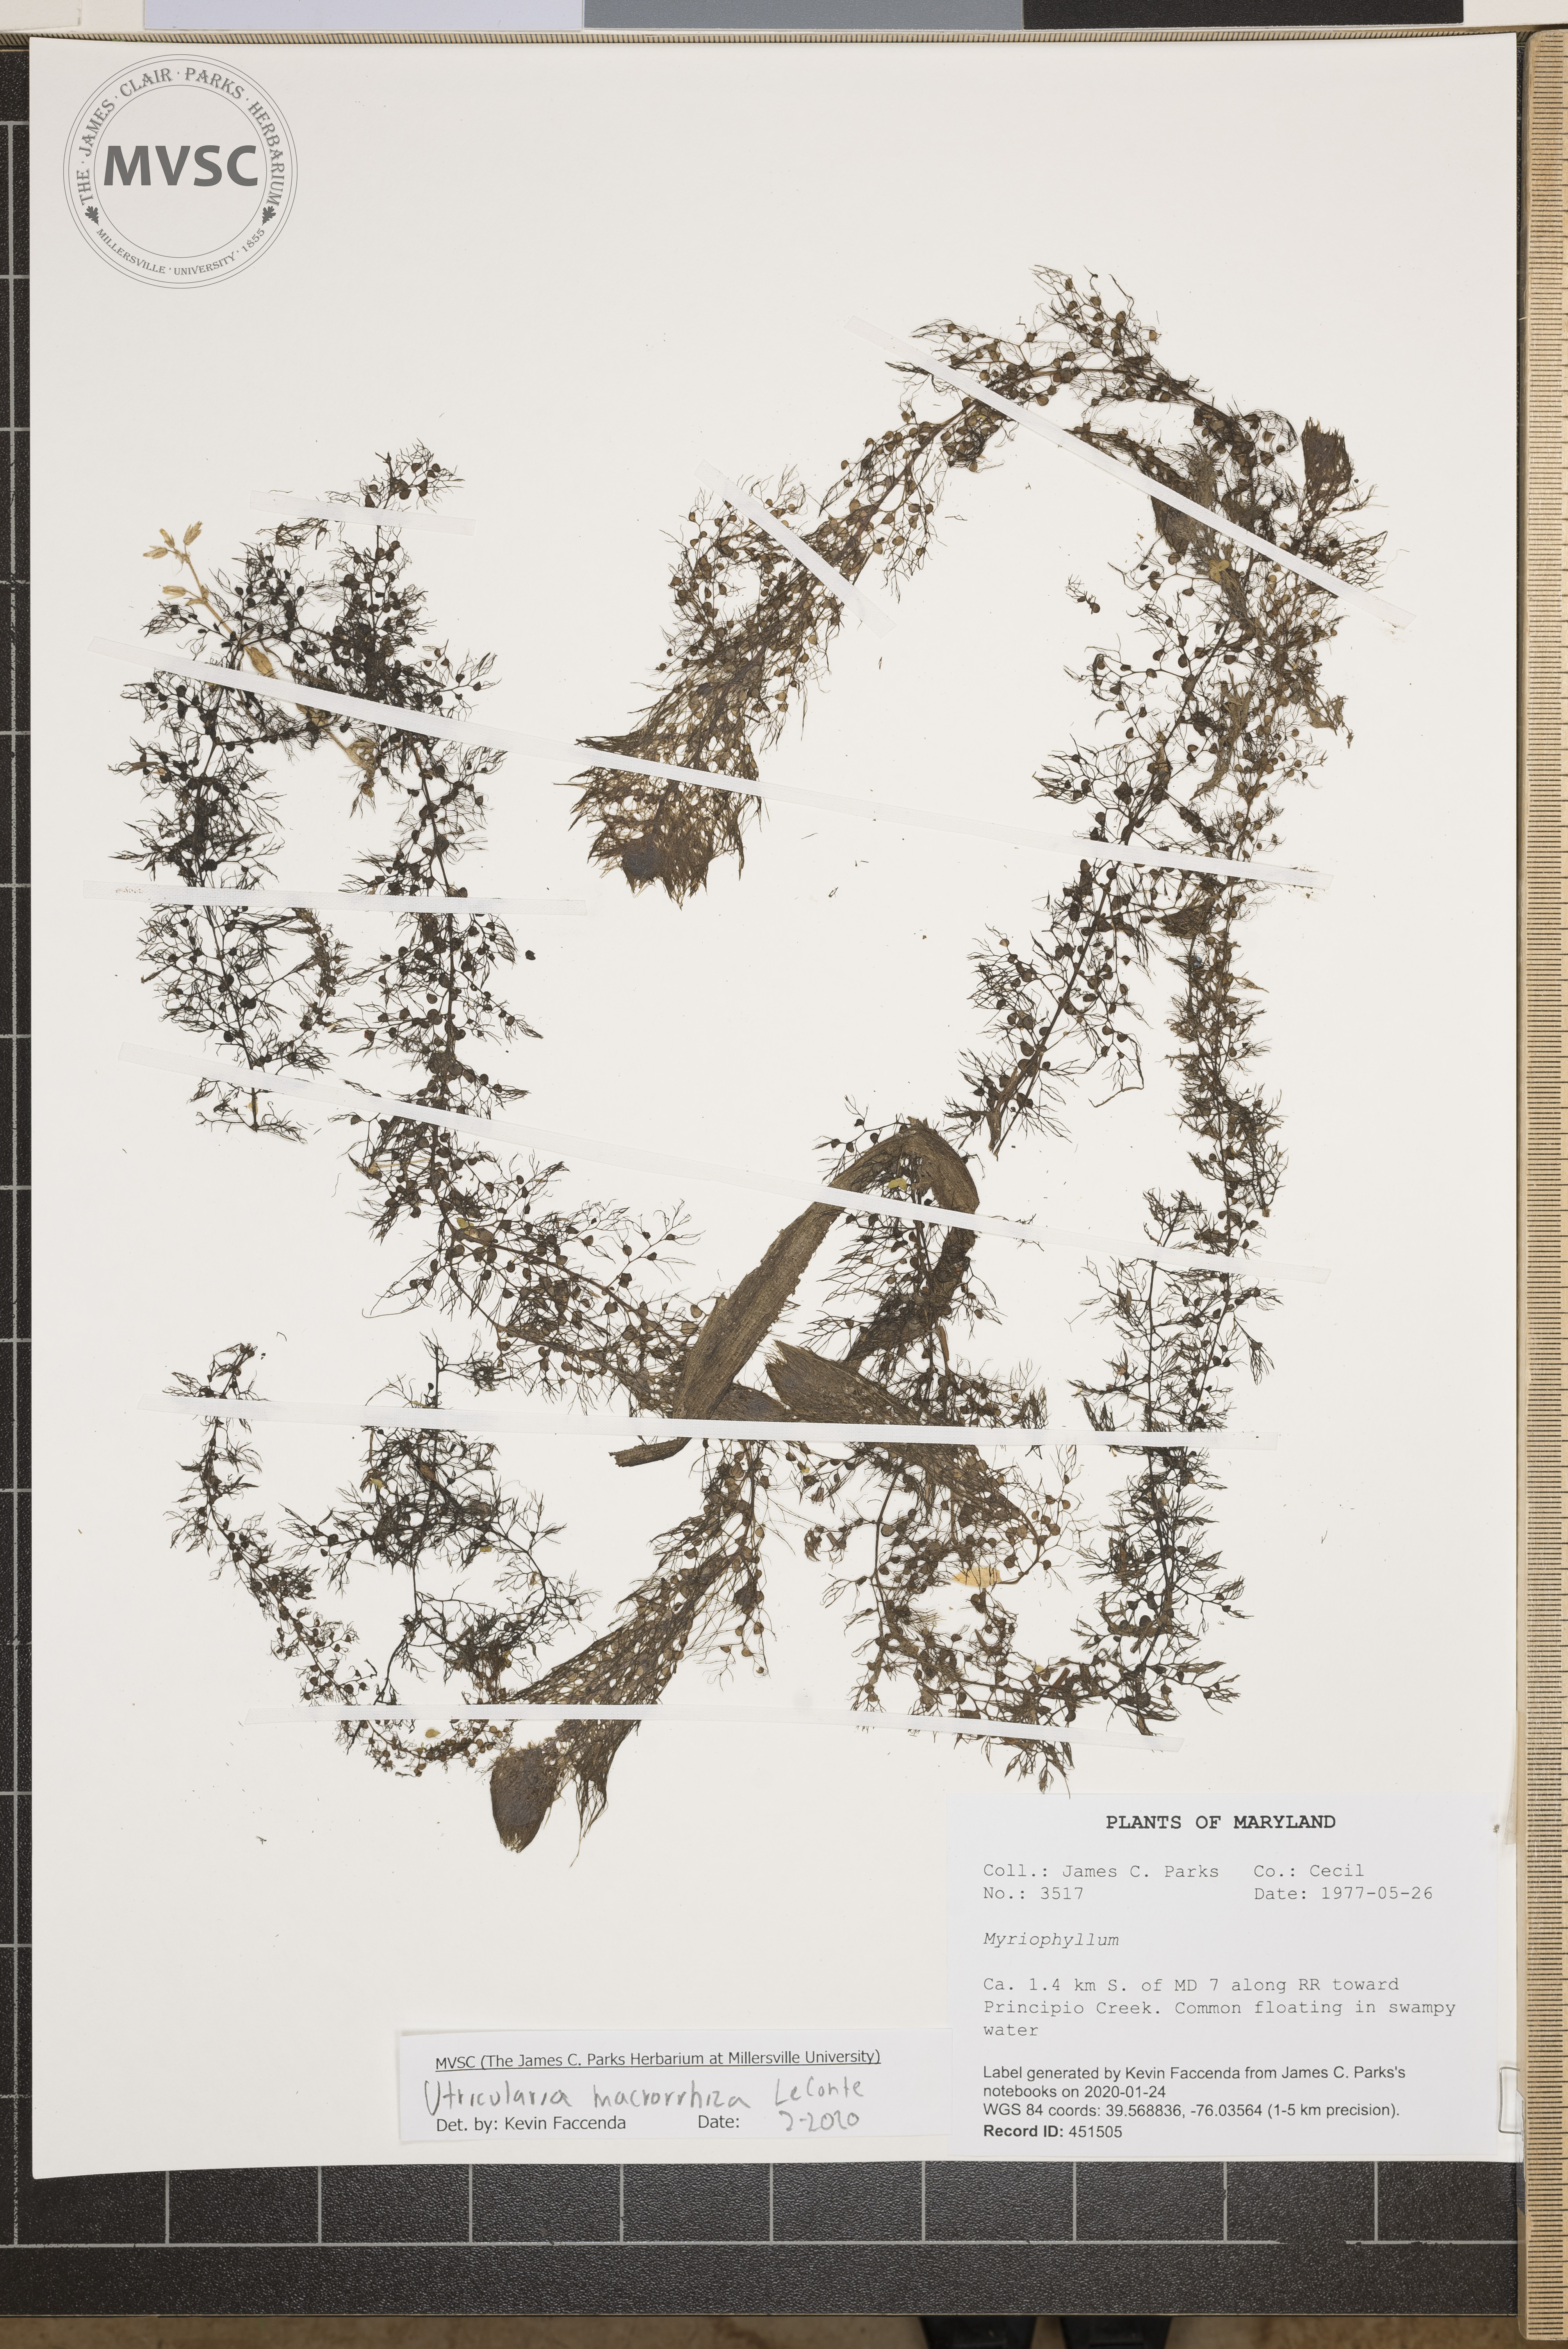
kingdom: Plantae
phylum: Tracheophyta
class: Magnoliopsida
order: Lamiales
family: Lentibulariaceae
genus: Utricularia
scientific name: Utricularia macrorhiza
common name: Common bladderwort
